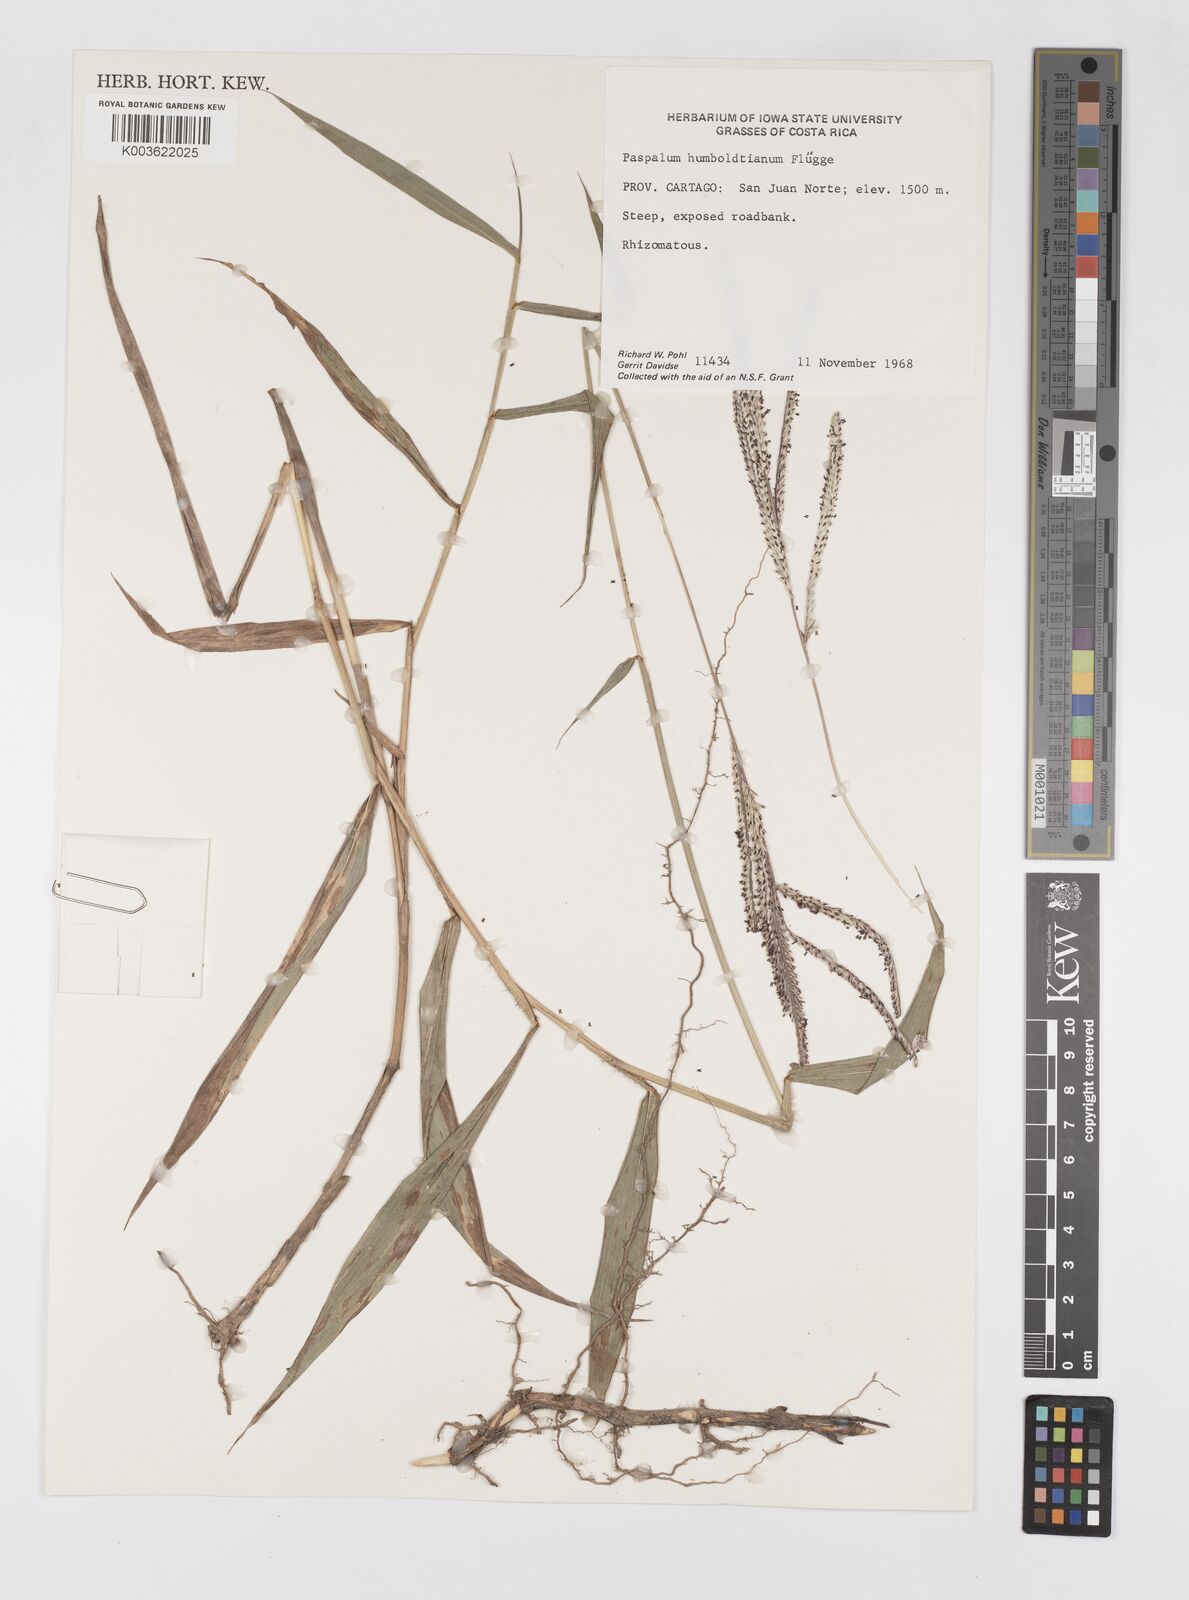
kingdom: Plantae
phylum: Tracheophyta
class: Liliopsida
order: Poales
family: Poaceae
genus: Paspalum
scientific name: Paspalum humboldtianum
